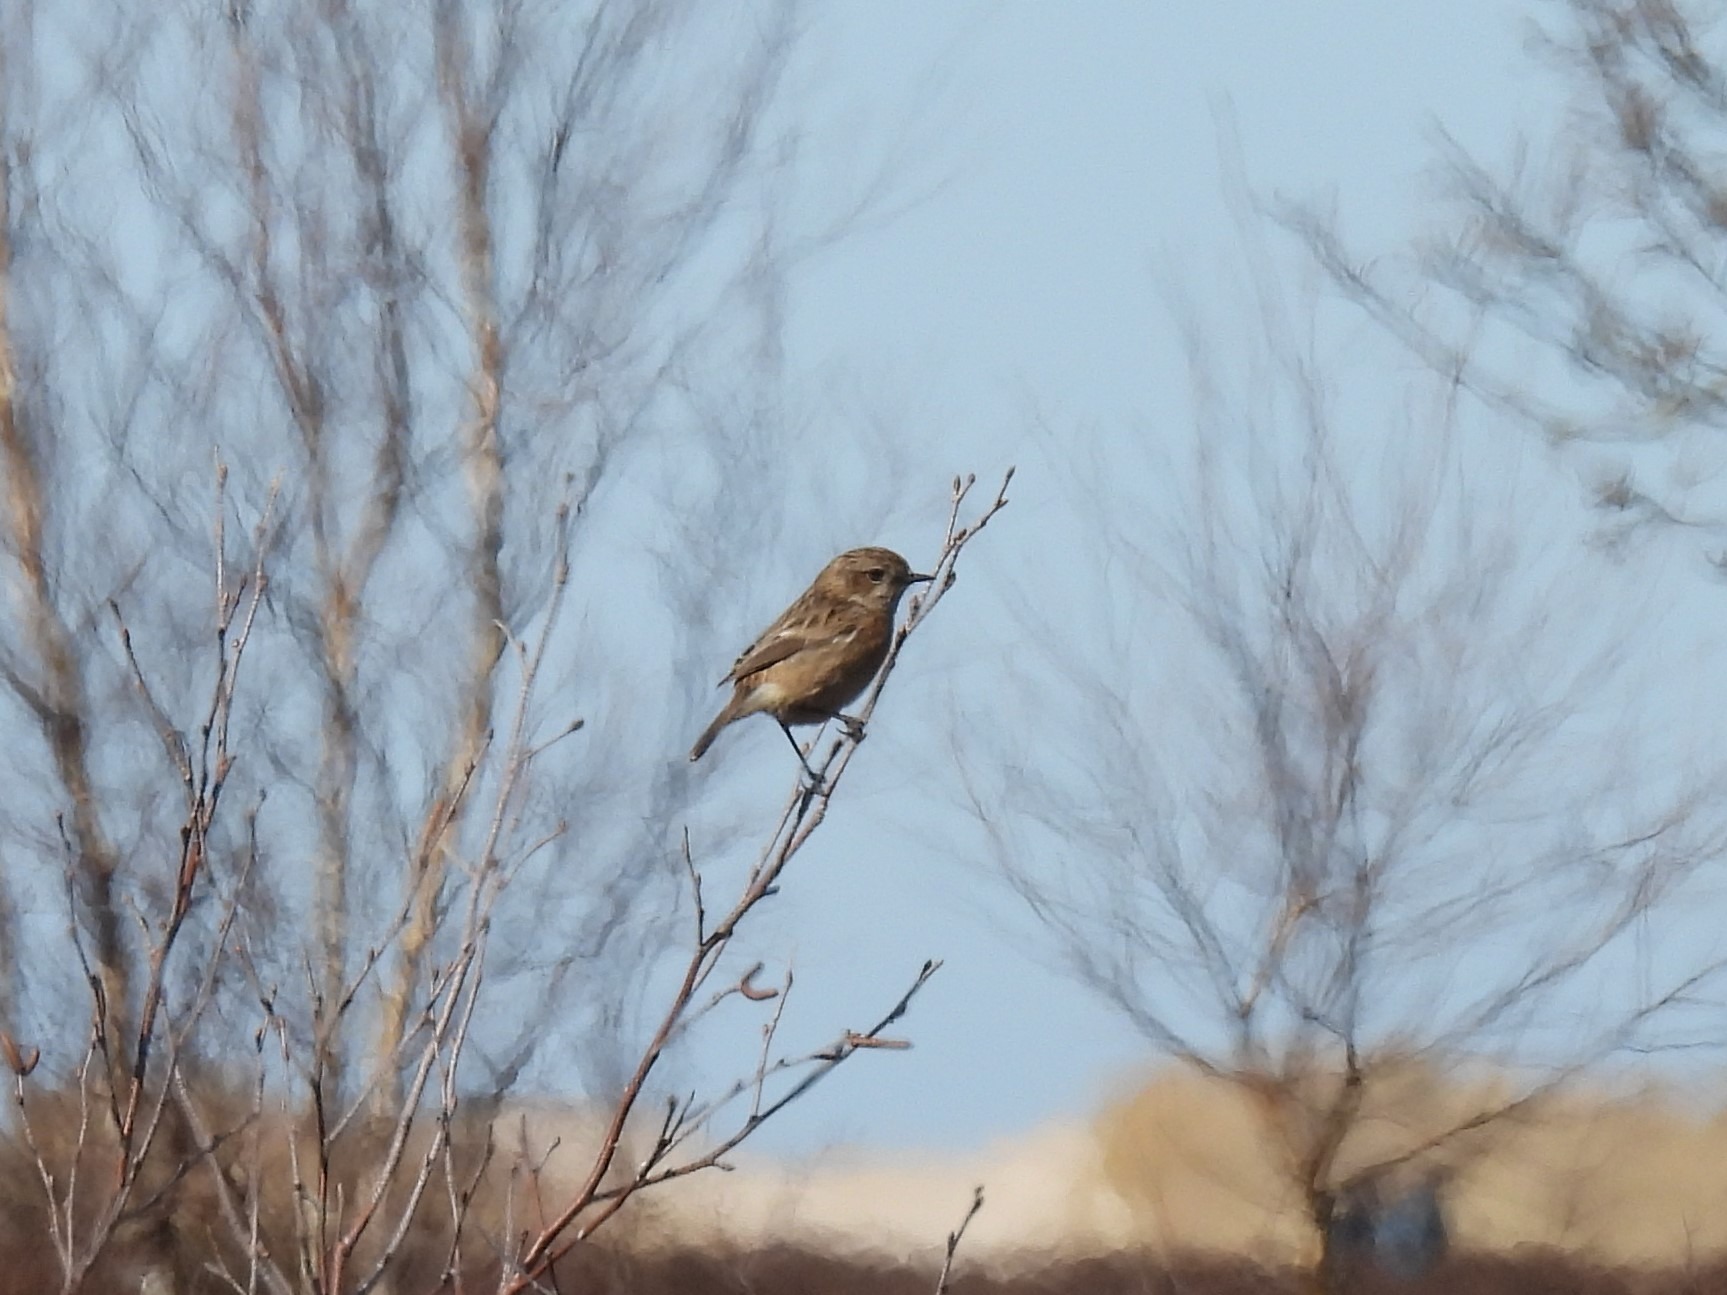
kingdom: Animalia
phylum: Chordata
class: Aves
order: Passeriformes
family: Muscicapidae
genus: Saxicola
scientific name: Saxicola rubicola
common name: Sortstrubet bynkefugl
